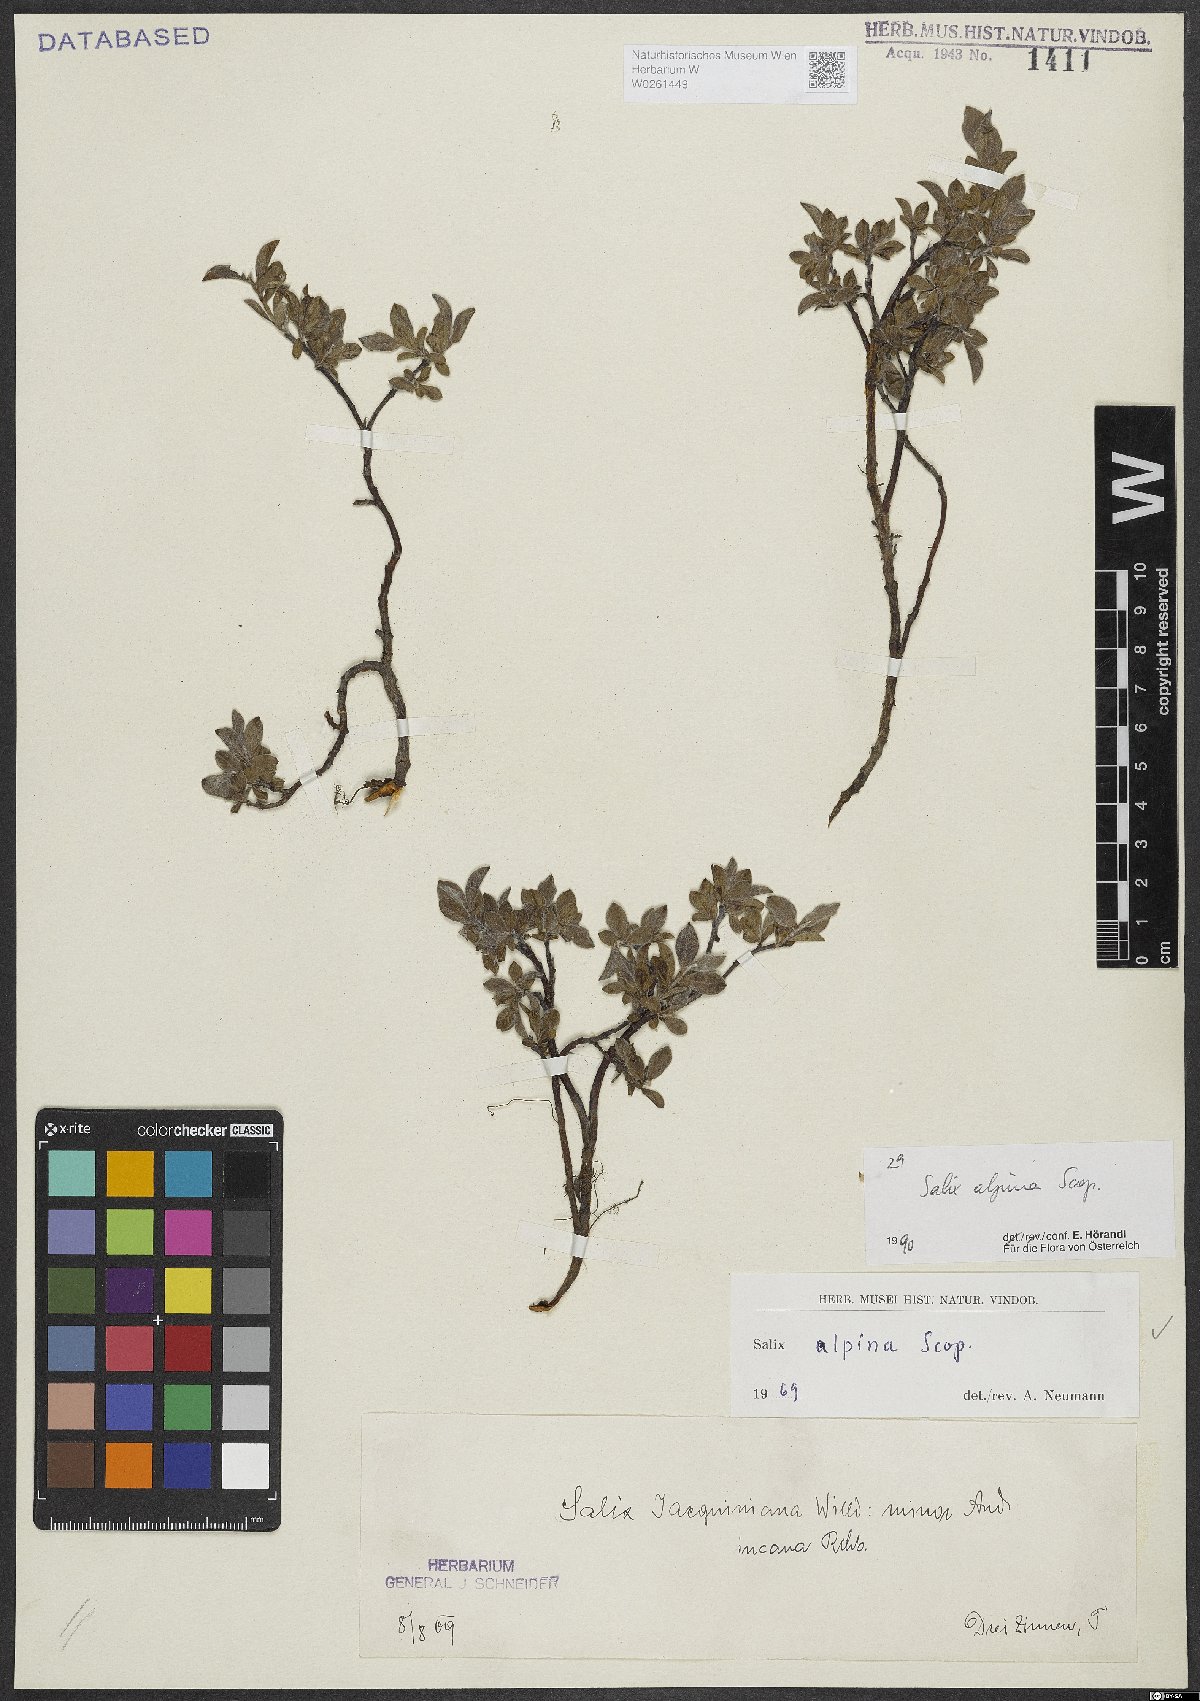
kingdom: Plantae
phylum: Tracheophyta
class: Magnoliopsida
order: Malpighiales
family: Salicaceae
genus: Salix
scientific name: Salix alpina
